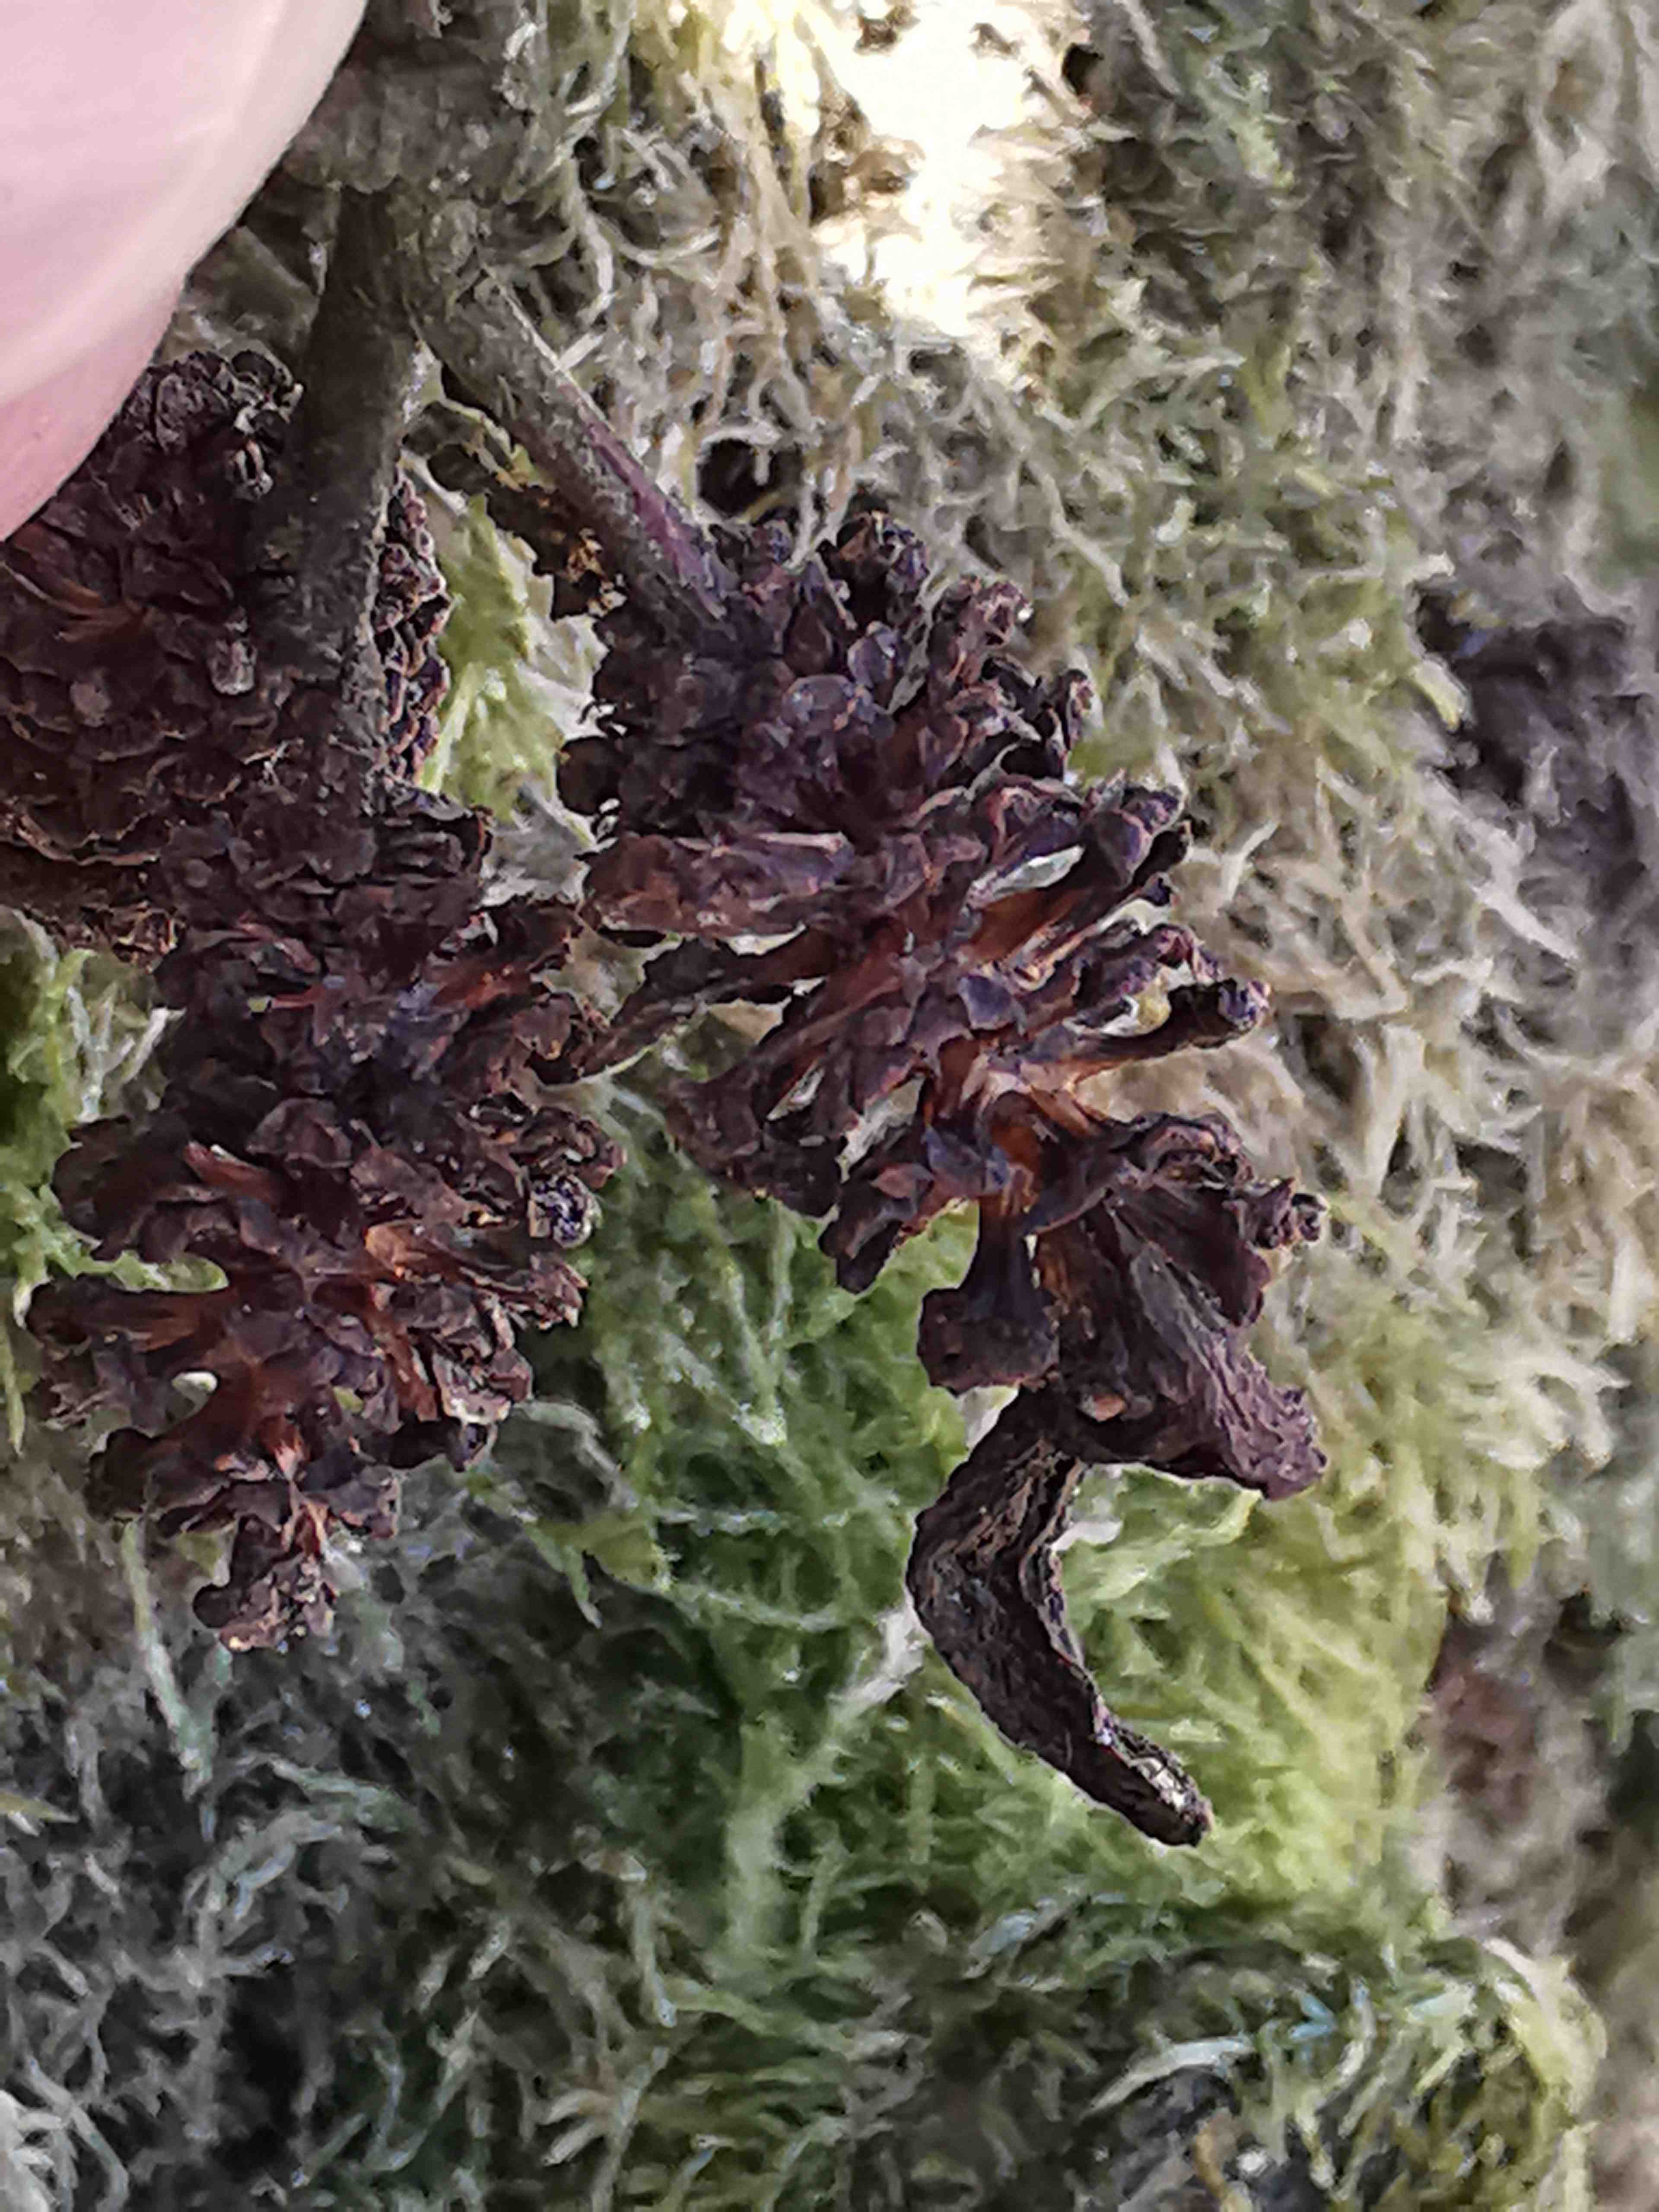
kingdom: Fungi
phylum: Ascomycota
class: Taphrinomycetes
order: Taphrinales
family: Taphrinaceae
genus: Taphrina
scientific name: Taphrina alni
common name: Alder tongue
